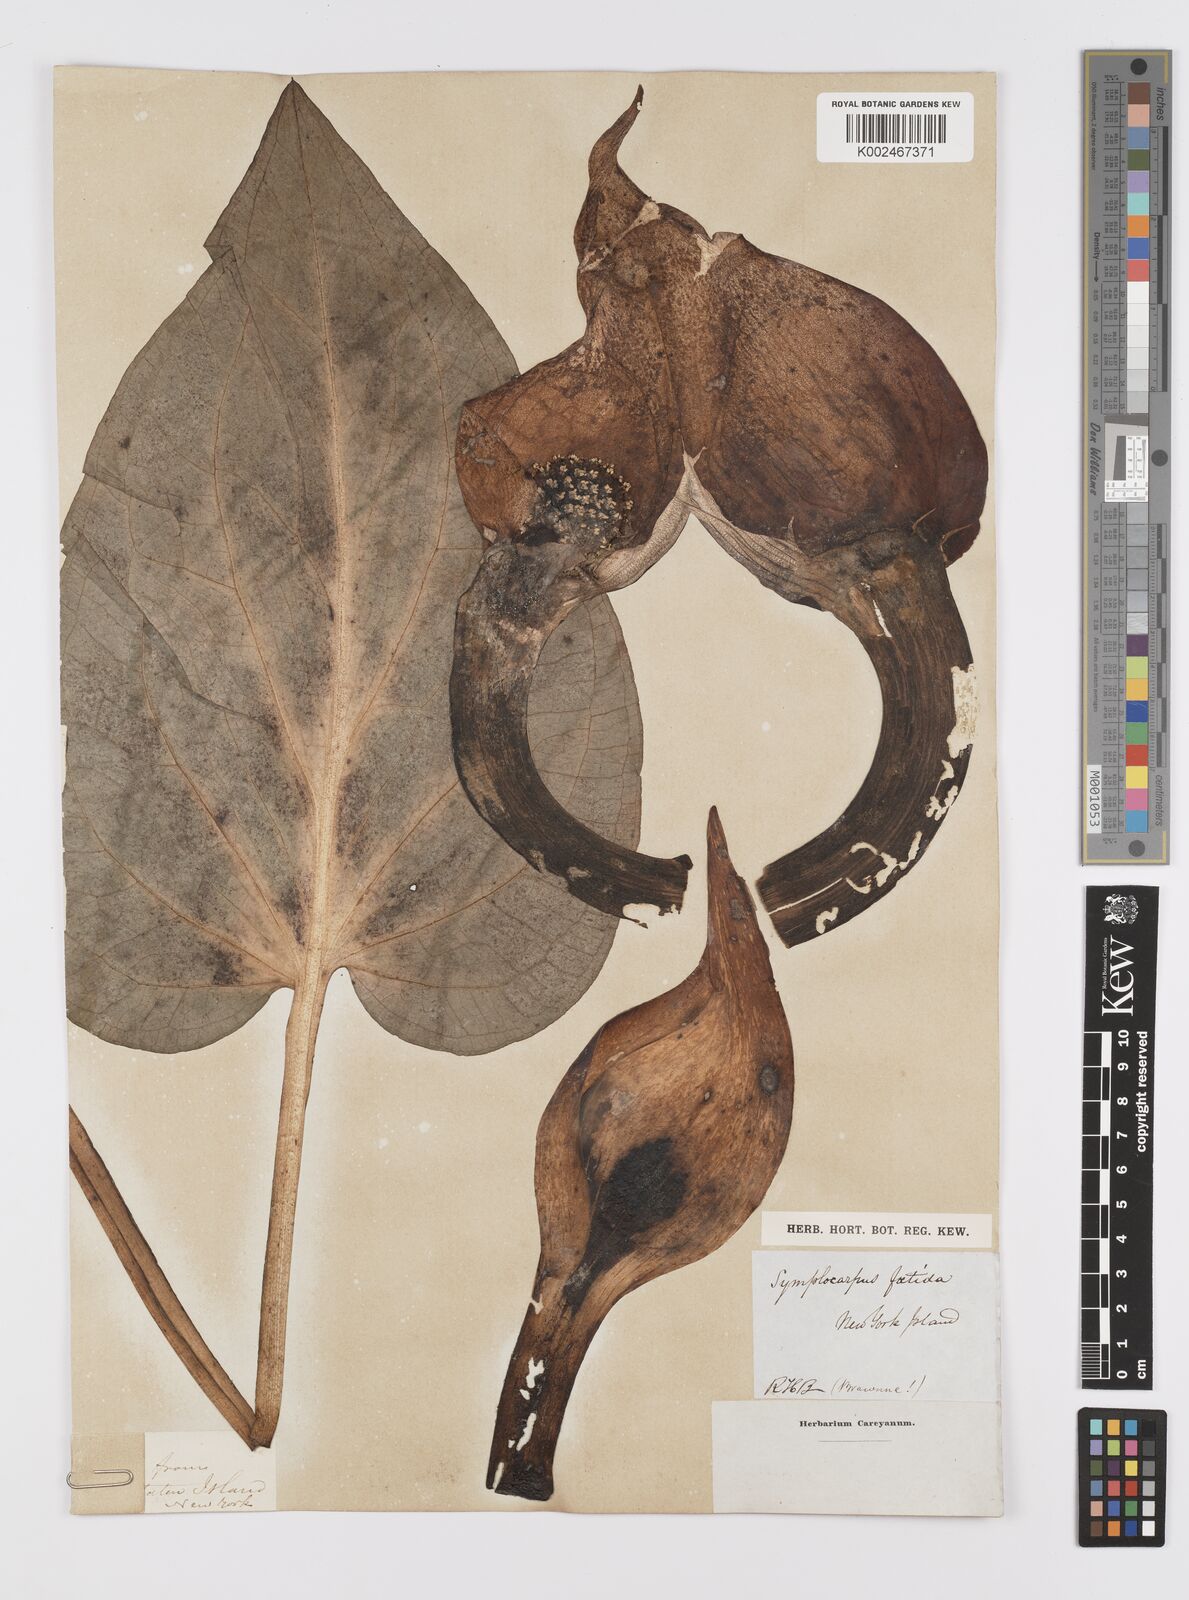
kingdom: Plantae
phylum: Tracheophyta
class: Liliopsida
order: Alismatales
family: Araceae
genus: Symplocarpus
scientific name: Symplocarpus foetidus
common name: Eastern skunk cabbage
